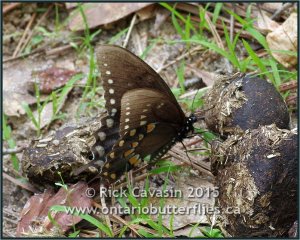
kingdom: Animalia
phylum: Arthropoda
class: Insecta
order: Lepidoptera
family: Papilionidae
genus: Pterourus
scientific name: Pterourus troilus
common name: Spicebush Swallowtail
